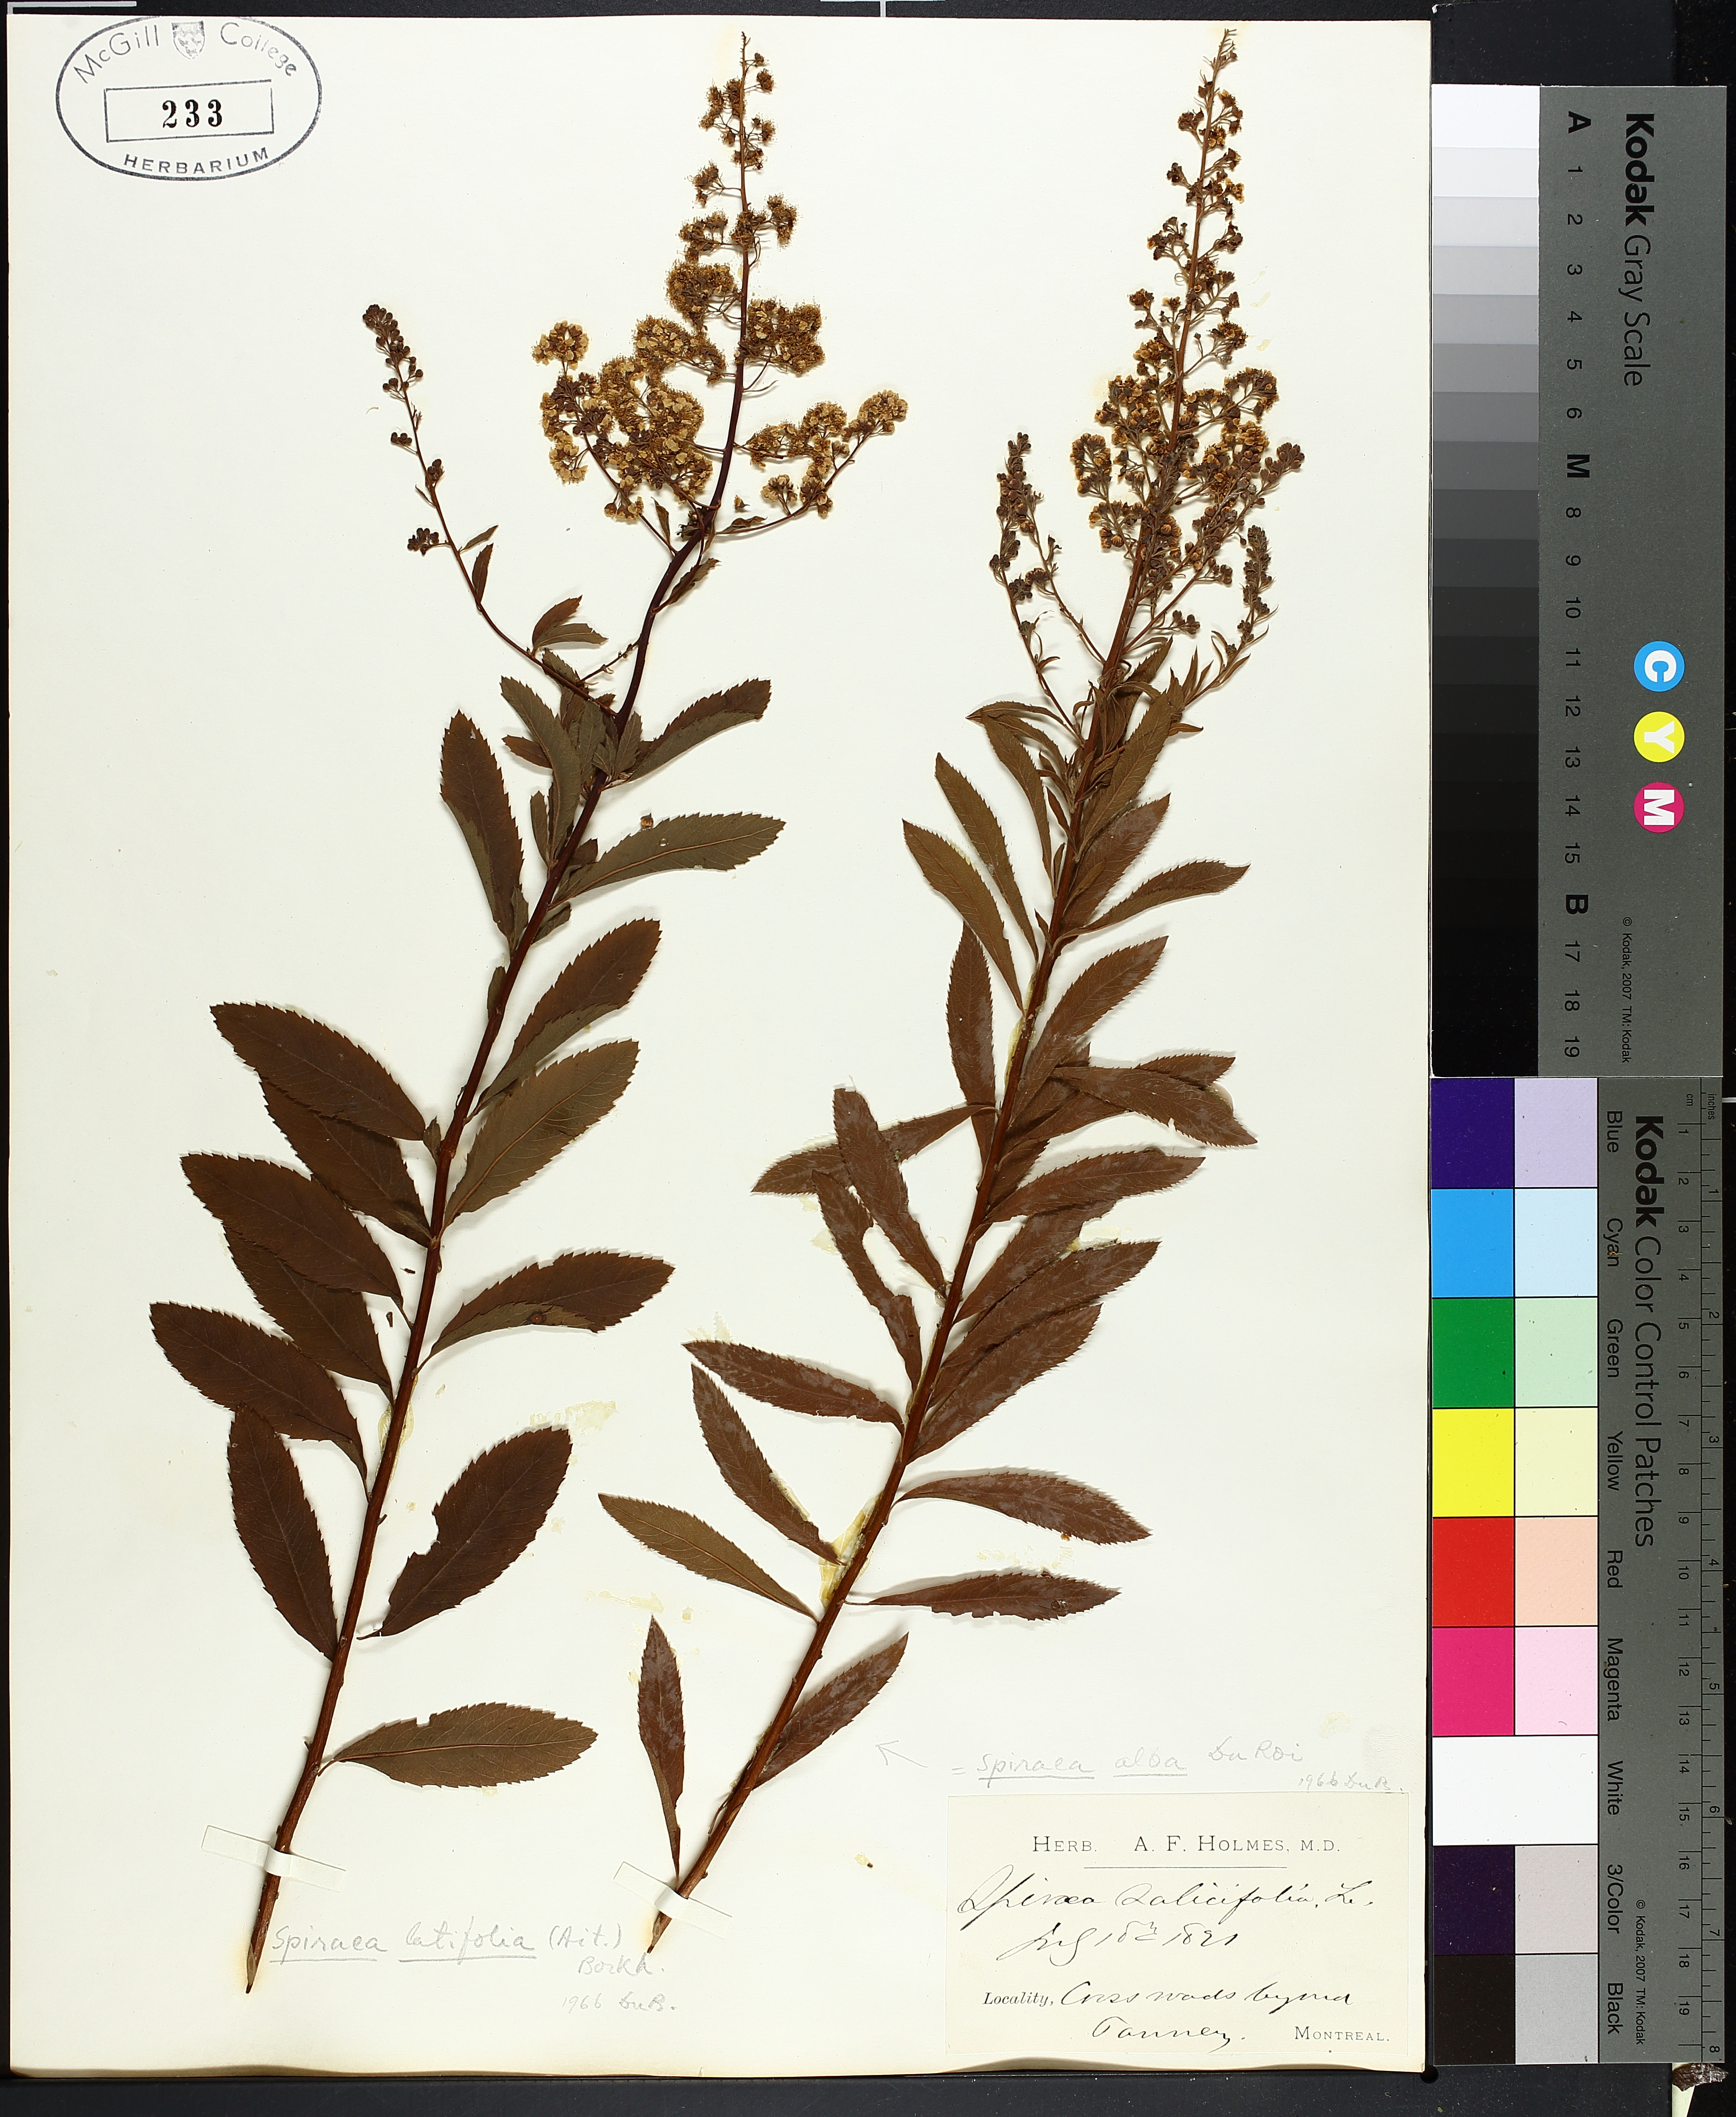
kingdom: Plantae
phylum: Tracheophyta
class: Magnoliopsida
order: Rosales
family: Rosaceae
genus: Spiraea
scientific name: Spiraea alba
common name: Pale bridewort
